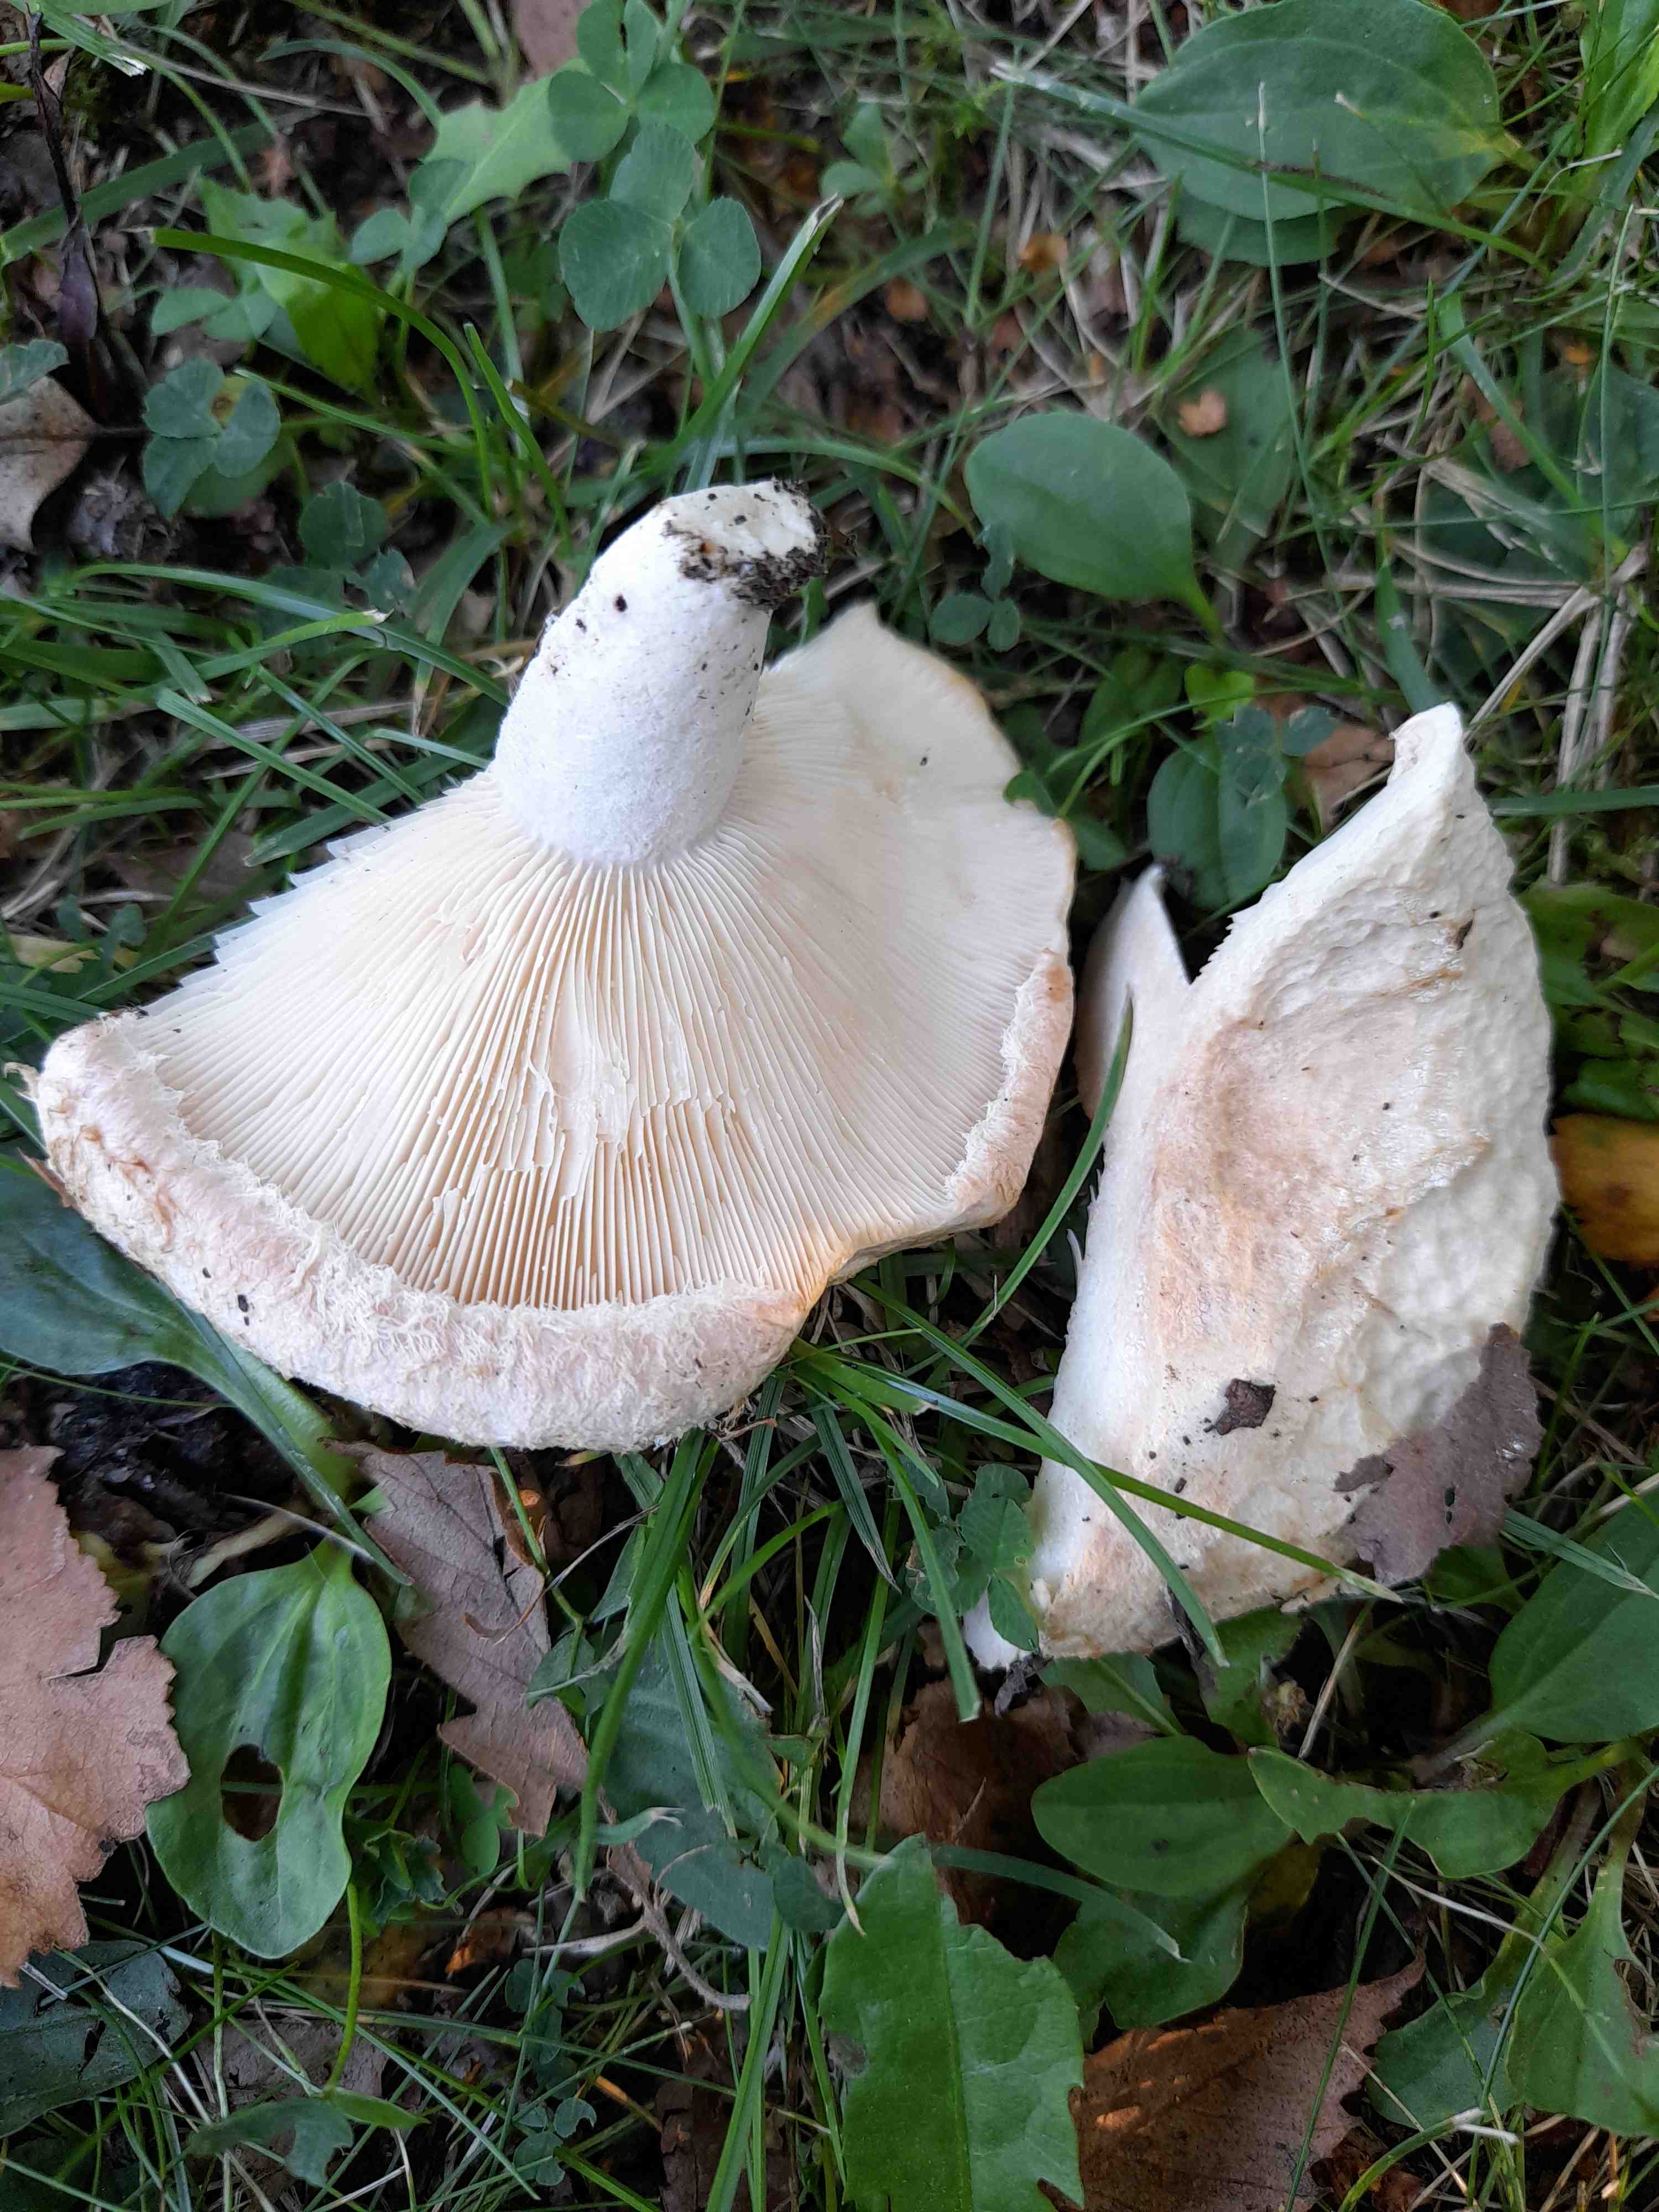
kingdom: Fungi
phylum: Basidiomycota
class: Agaricomycetes
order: Russulales
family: Russulaceae
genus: Lactarius
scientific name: Lactarius pubescens
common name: dunet mælkehat
